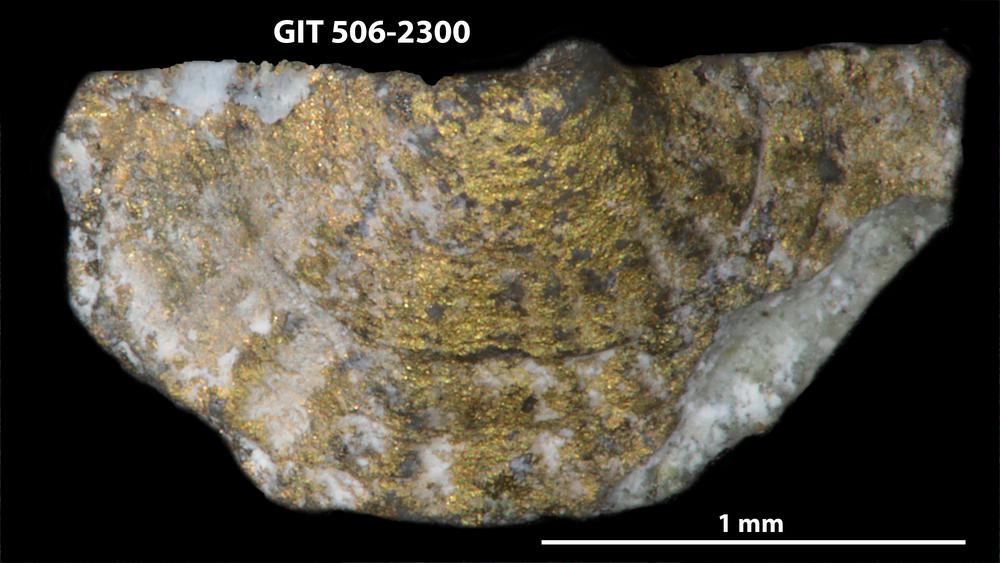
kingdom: Animalia
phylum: Brachiopoda
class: Rhynchonellata
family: Skenidiidae
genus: Skenidioides
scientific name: Skenidioides Orthis acuta
